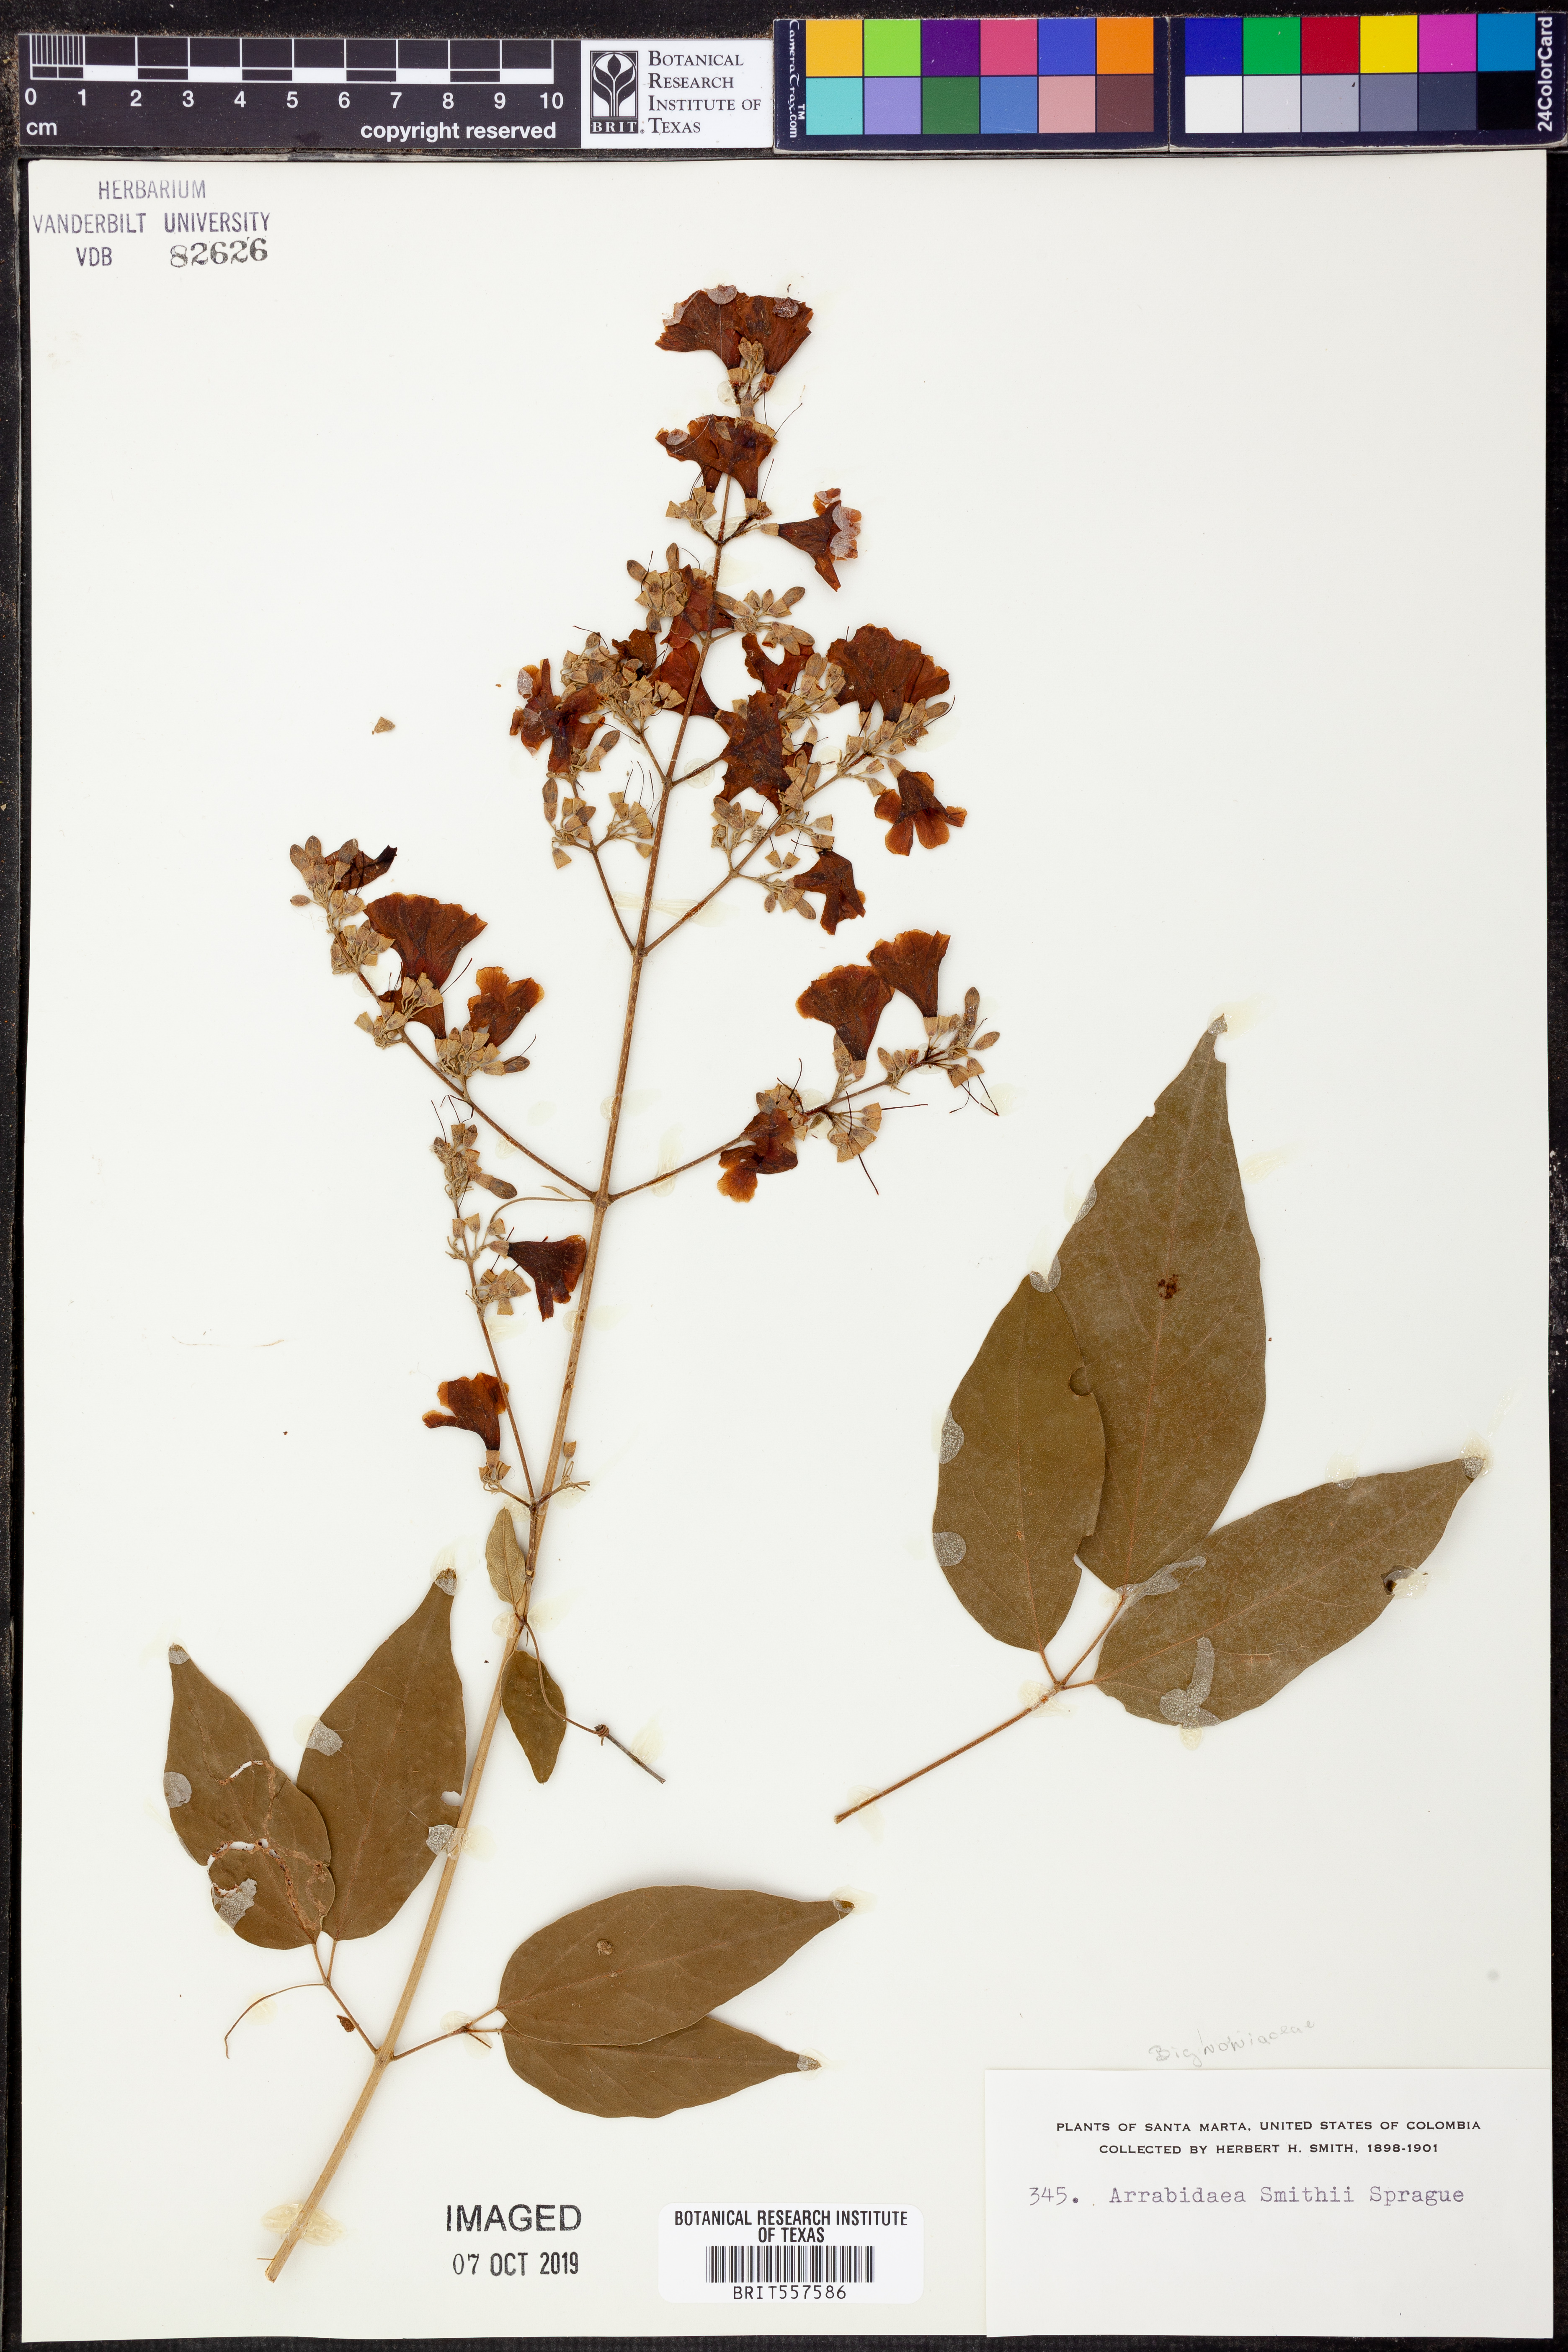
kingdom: Plantae
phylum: Tracheophyta
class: Magnoliopsida
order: Rosales
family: Rhamnaceae
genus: Arrabidaea
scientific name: Arrabidaea
